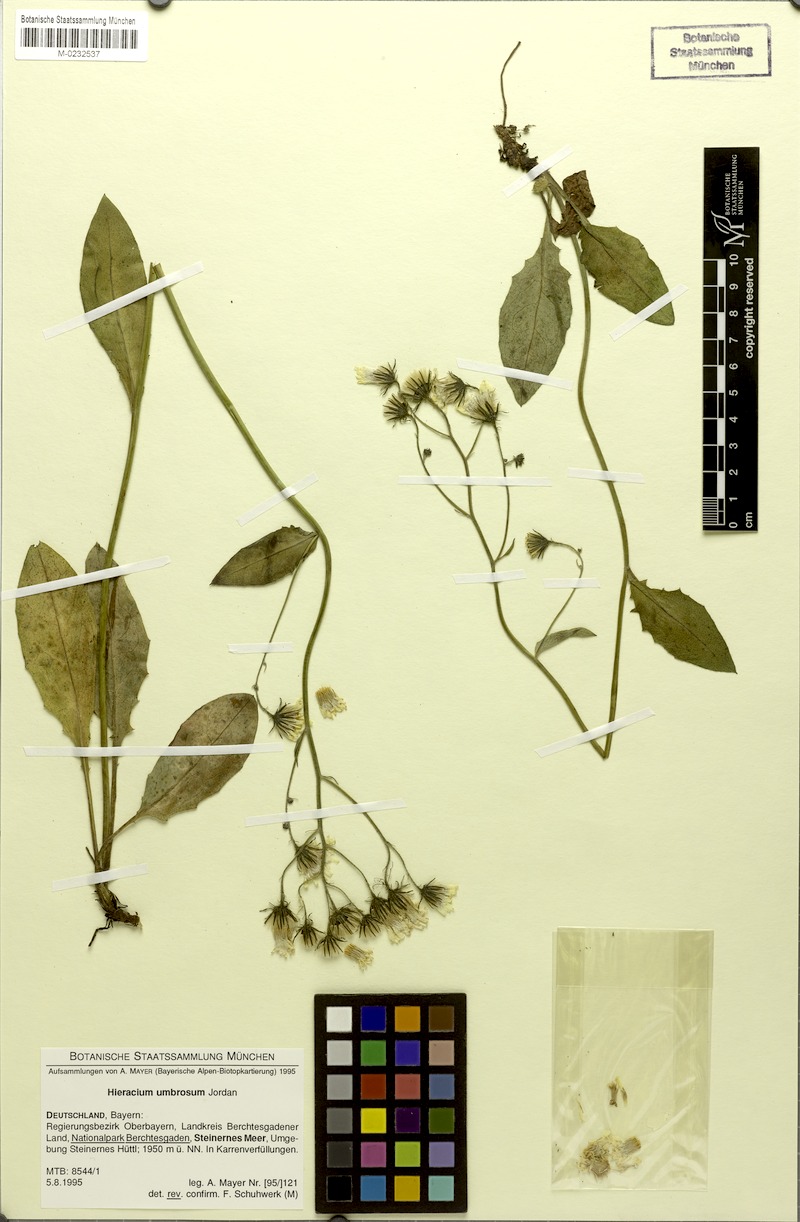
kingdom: Plantae
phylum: Tracheophyta
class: Magnoliopsida
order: Asterales
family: Asteraceae
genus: Hieracium
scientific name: Hieracium umbrosum
